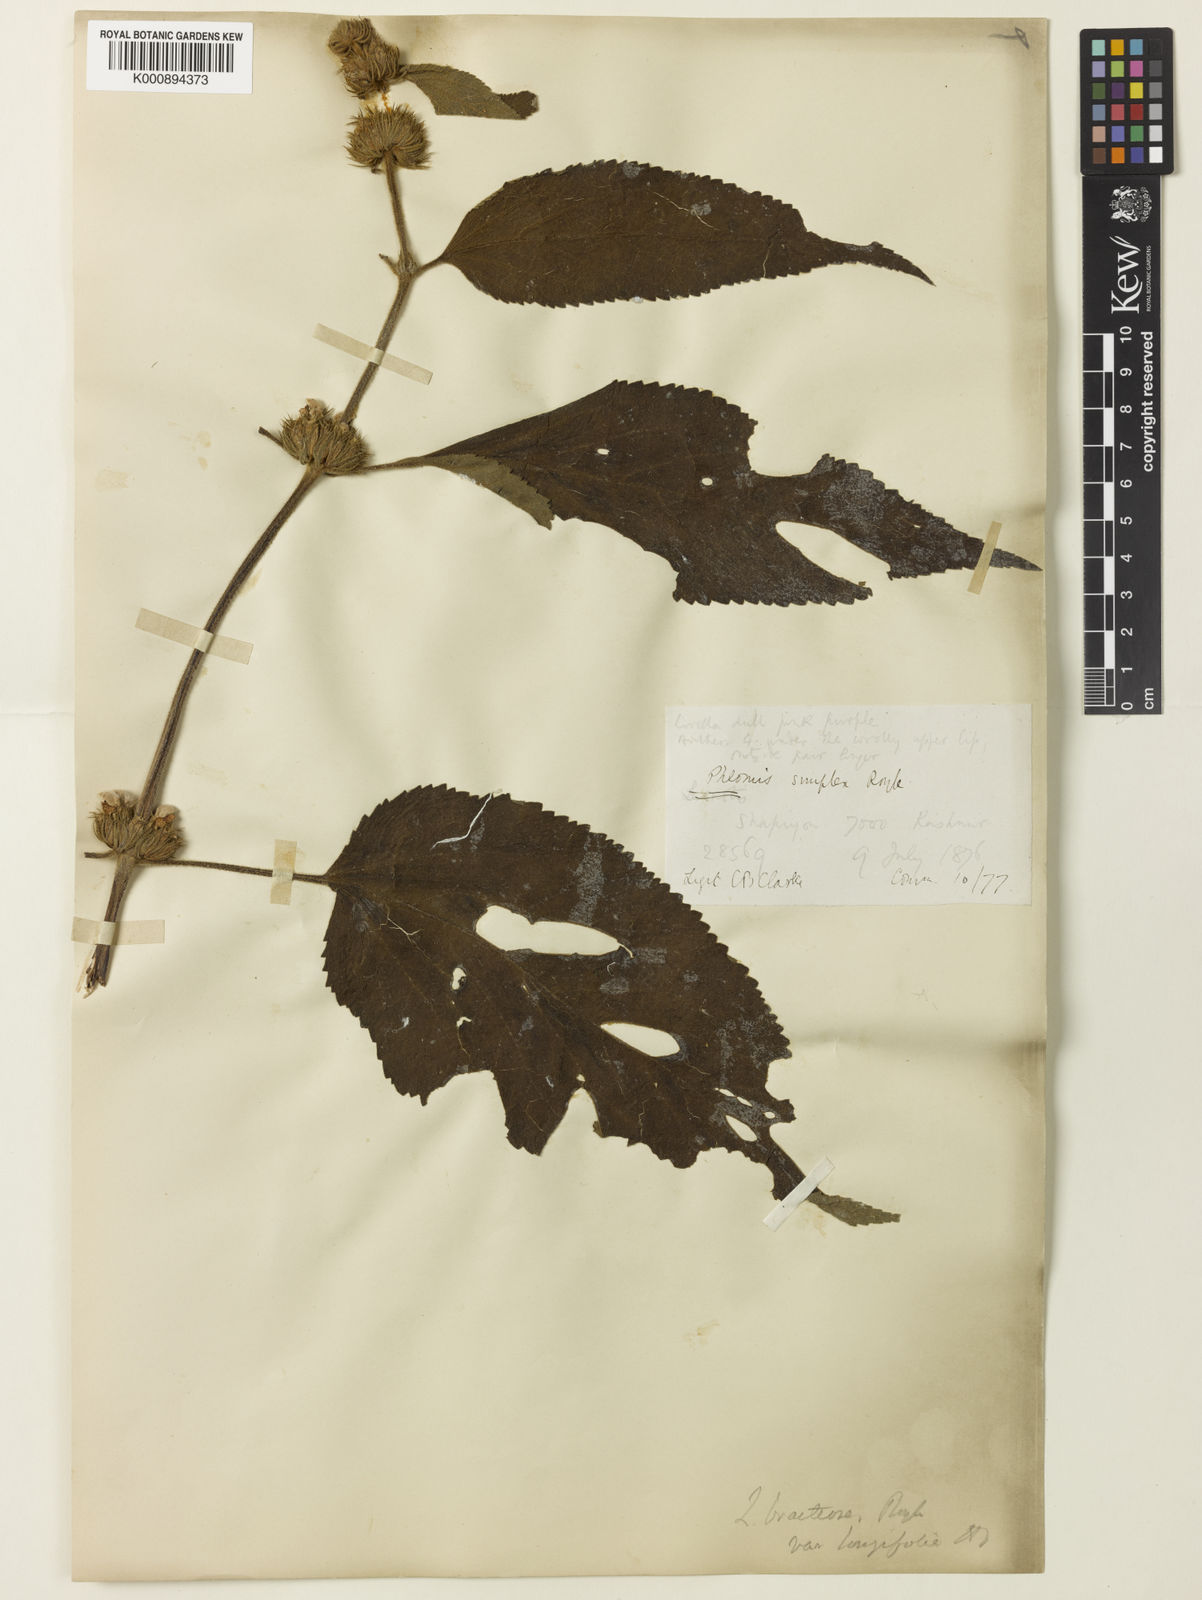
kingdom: Plantae
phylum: Tracheophyta
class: Magnoliopsida
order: Lamiales
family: Lamiaceae
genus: Phlomoides
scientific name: Phlomoides bracteosa
